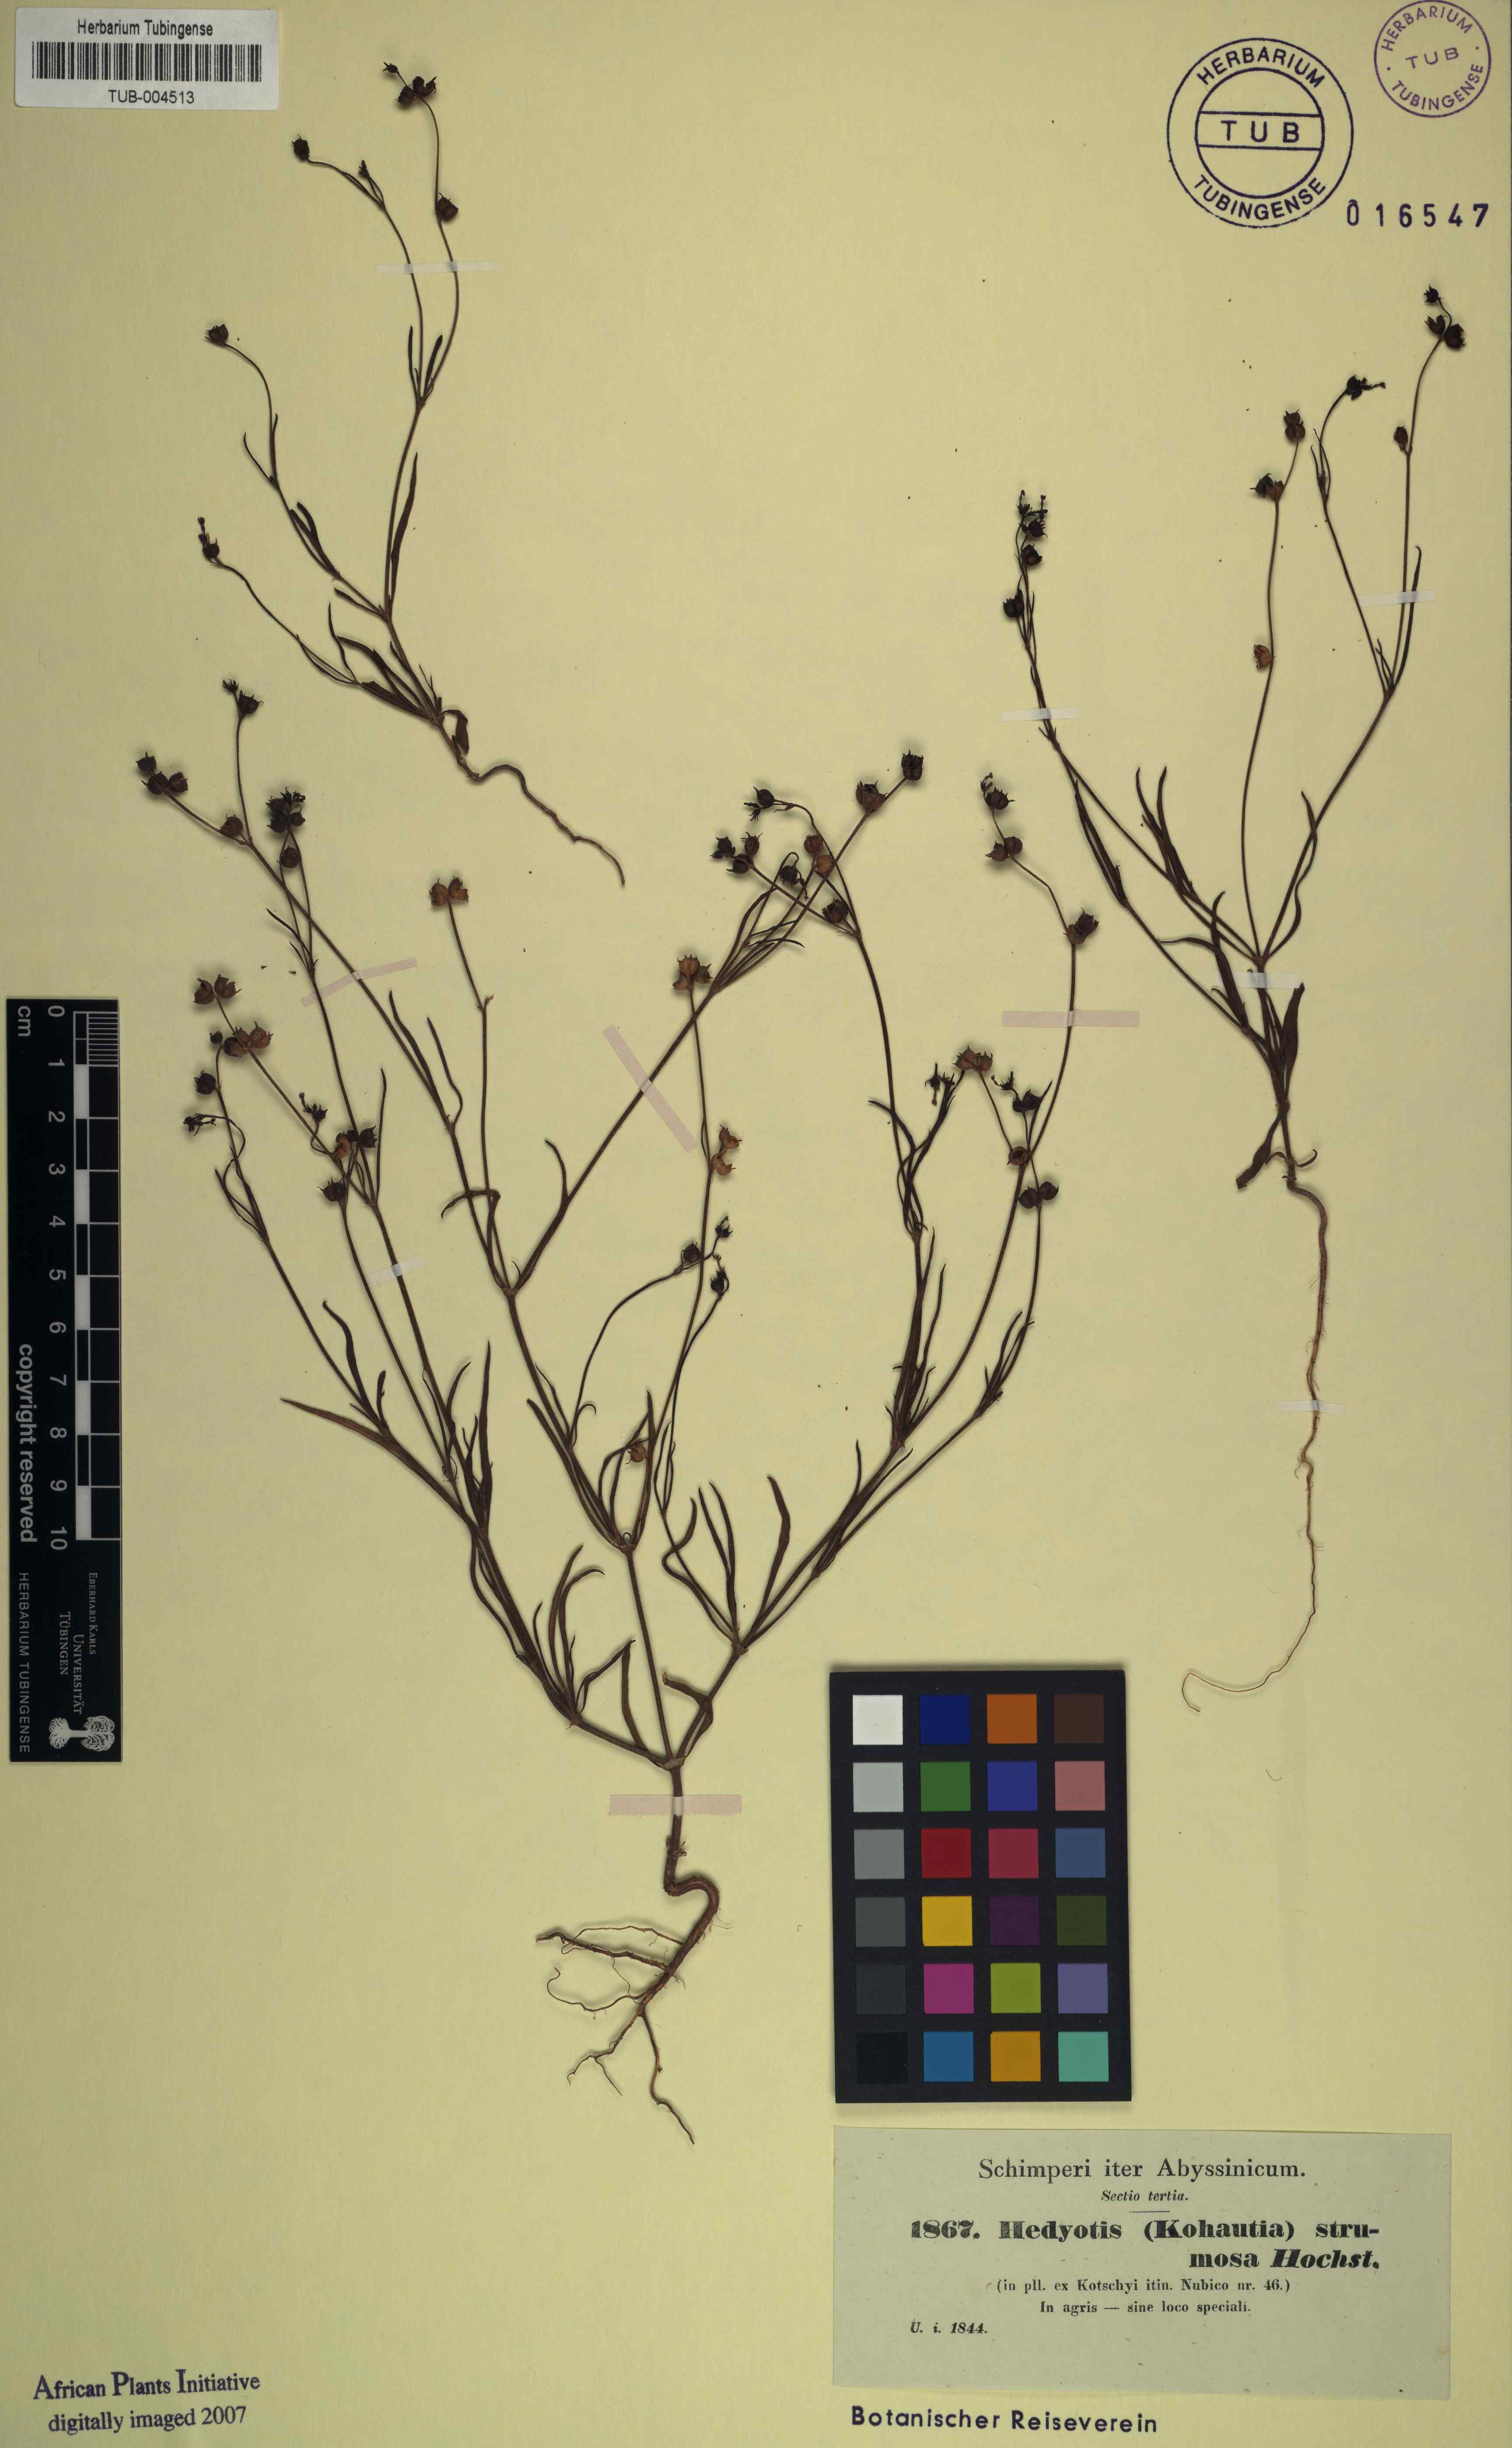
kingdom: Plantae
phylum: Tracheophyta
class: Magnoliopsida
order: Gentianales
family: Rubiaceae
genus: Kohautia
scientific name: Kohautia aspera
